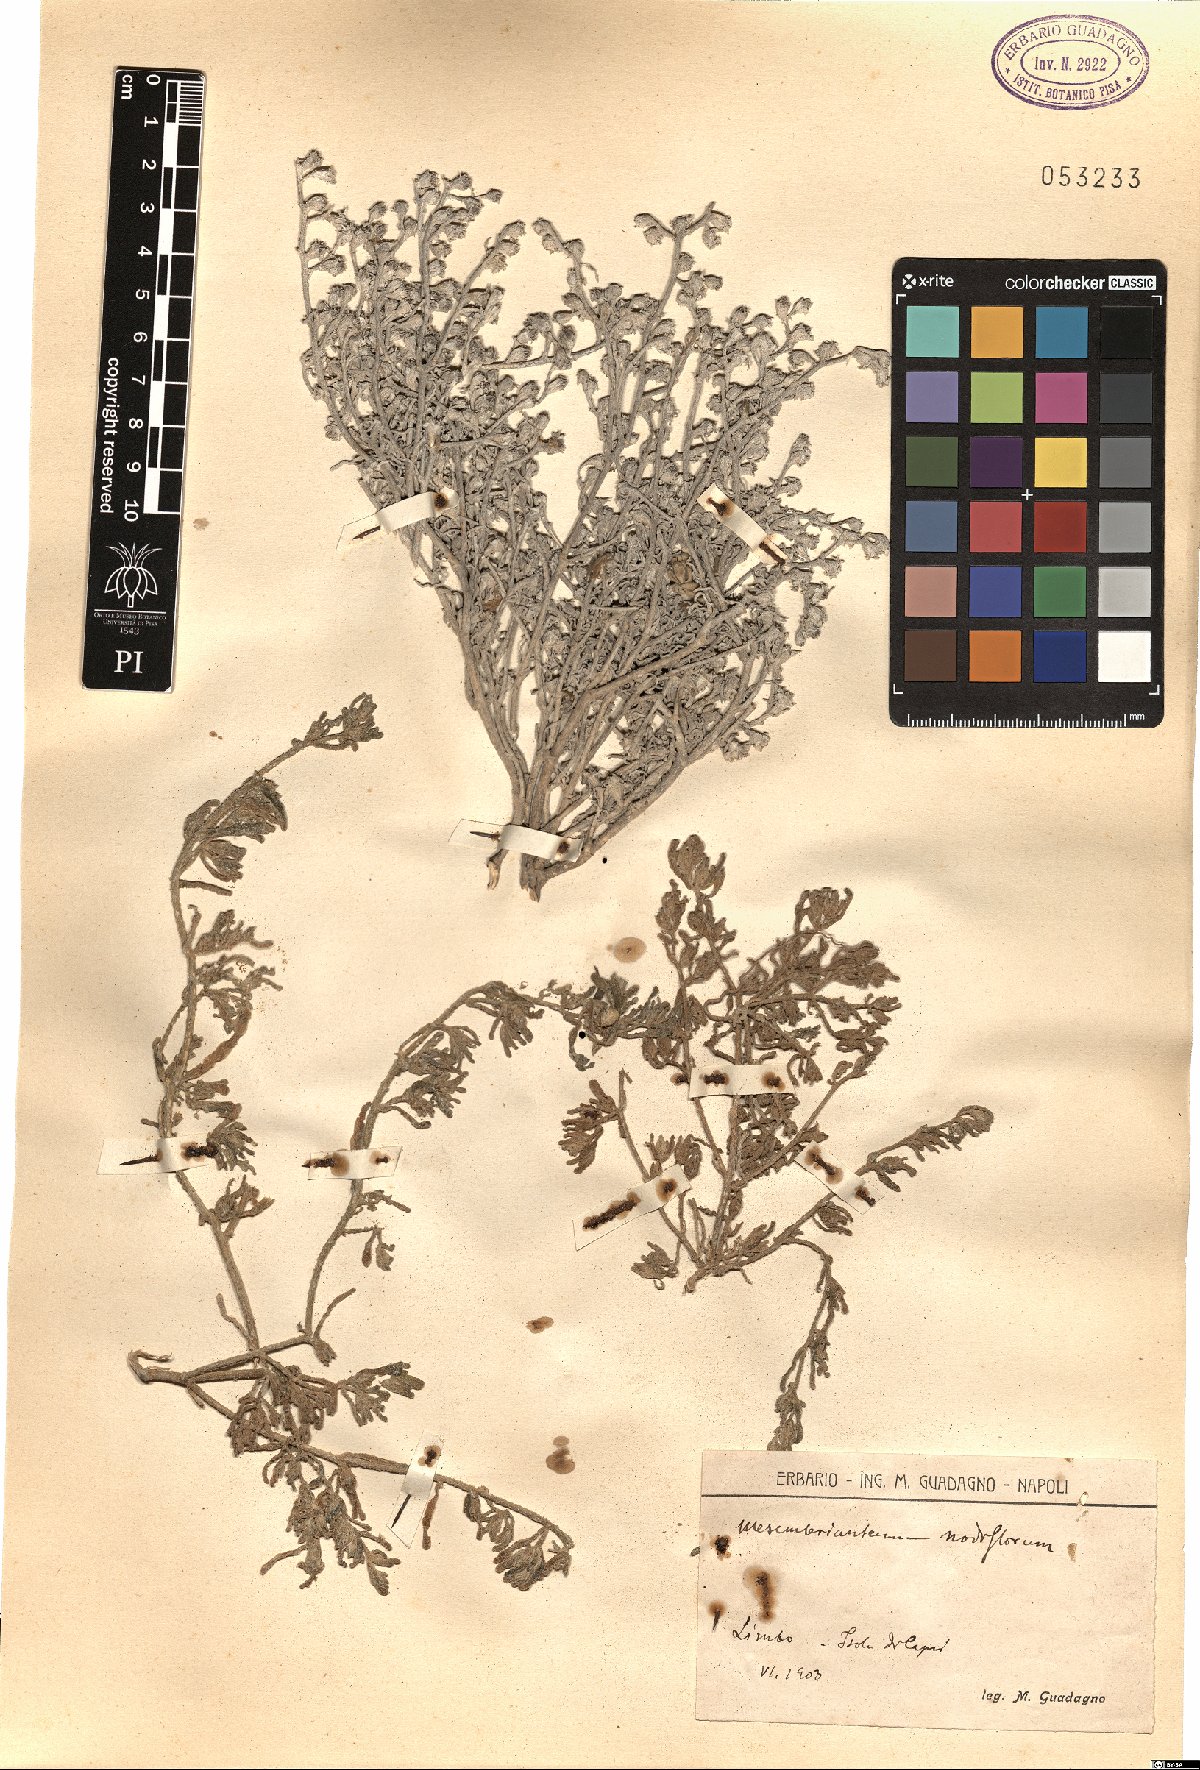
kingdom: Plantae
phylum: Tracheophyta
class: Magnoliopsida
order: Caryophyllales
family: Aizoaceae
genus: Mesembryanthemum
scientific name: Mesembryanthemum nodiflorum
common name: Slenderleaf iceplant
